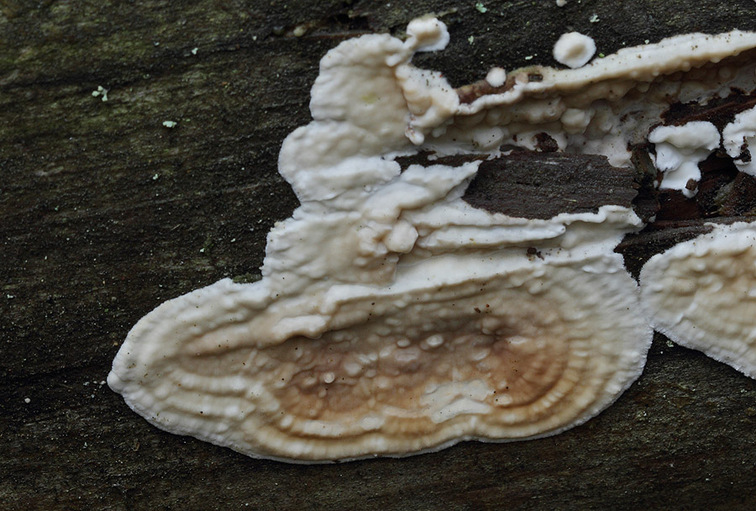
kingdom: Fungi
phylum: Basidiomycota
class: Agaricomycetes
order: Polyporales
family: Dacryobolaceae
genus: Dacryobolus
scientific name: Dacryobolus karstenii
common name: glat vulkanskorpe
